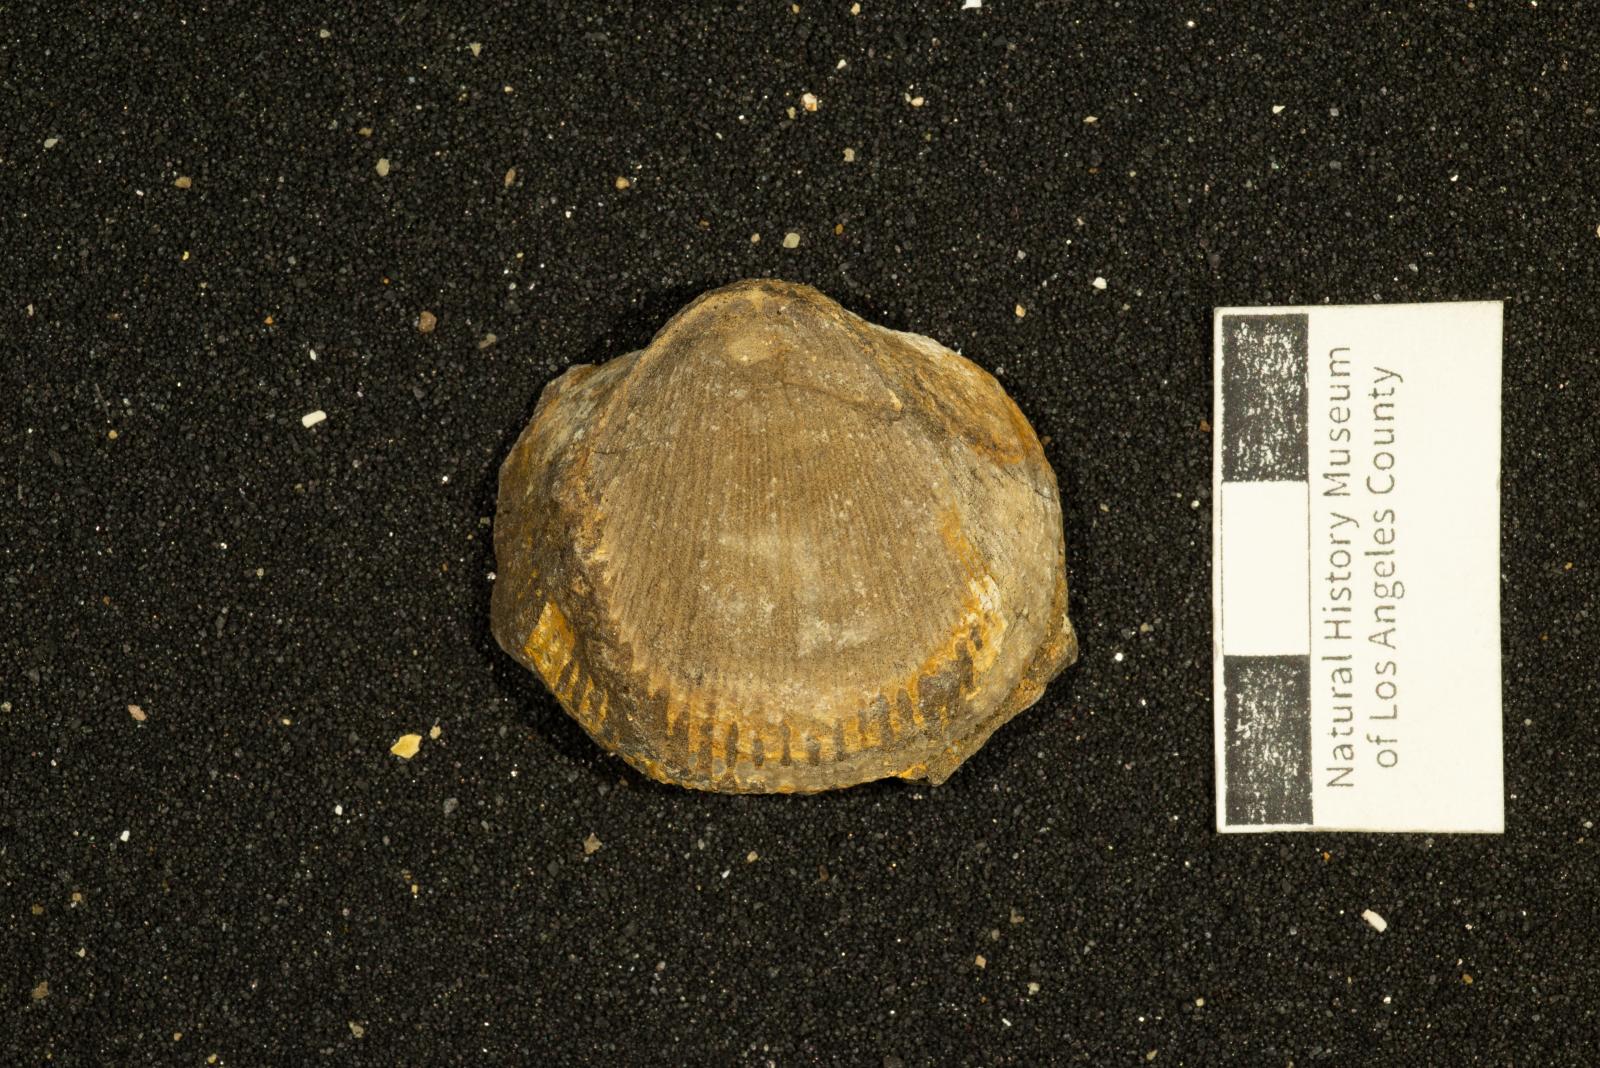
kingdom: Animalia
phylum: Mollusca
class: Bivalvia
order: Arcida
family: Glycymerididae
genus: Glycymerita
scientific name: Glycymerita Glycymeris banosensis
